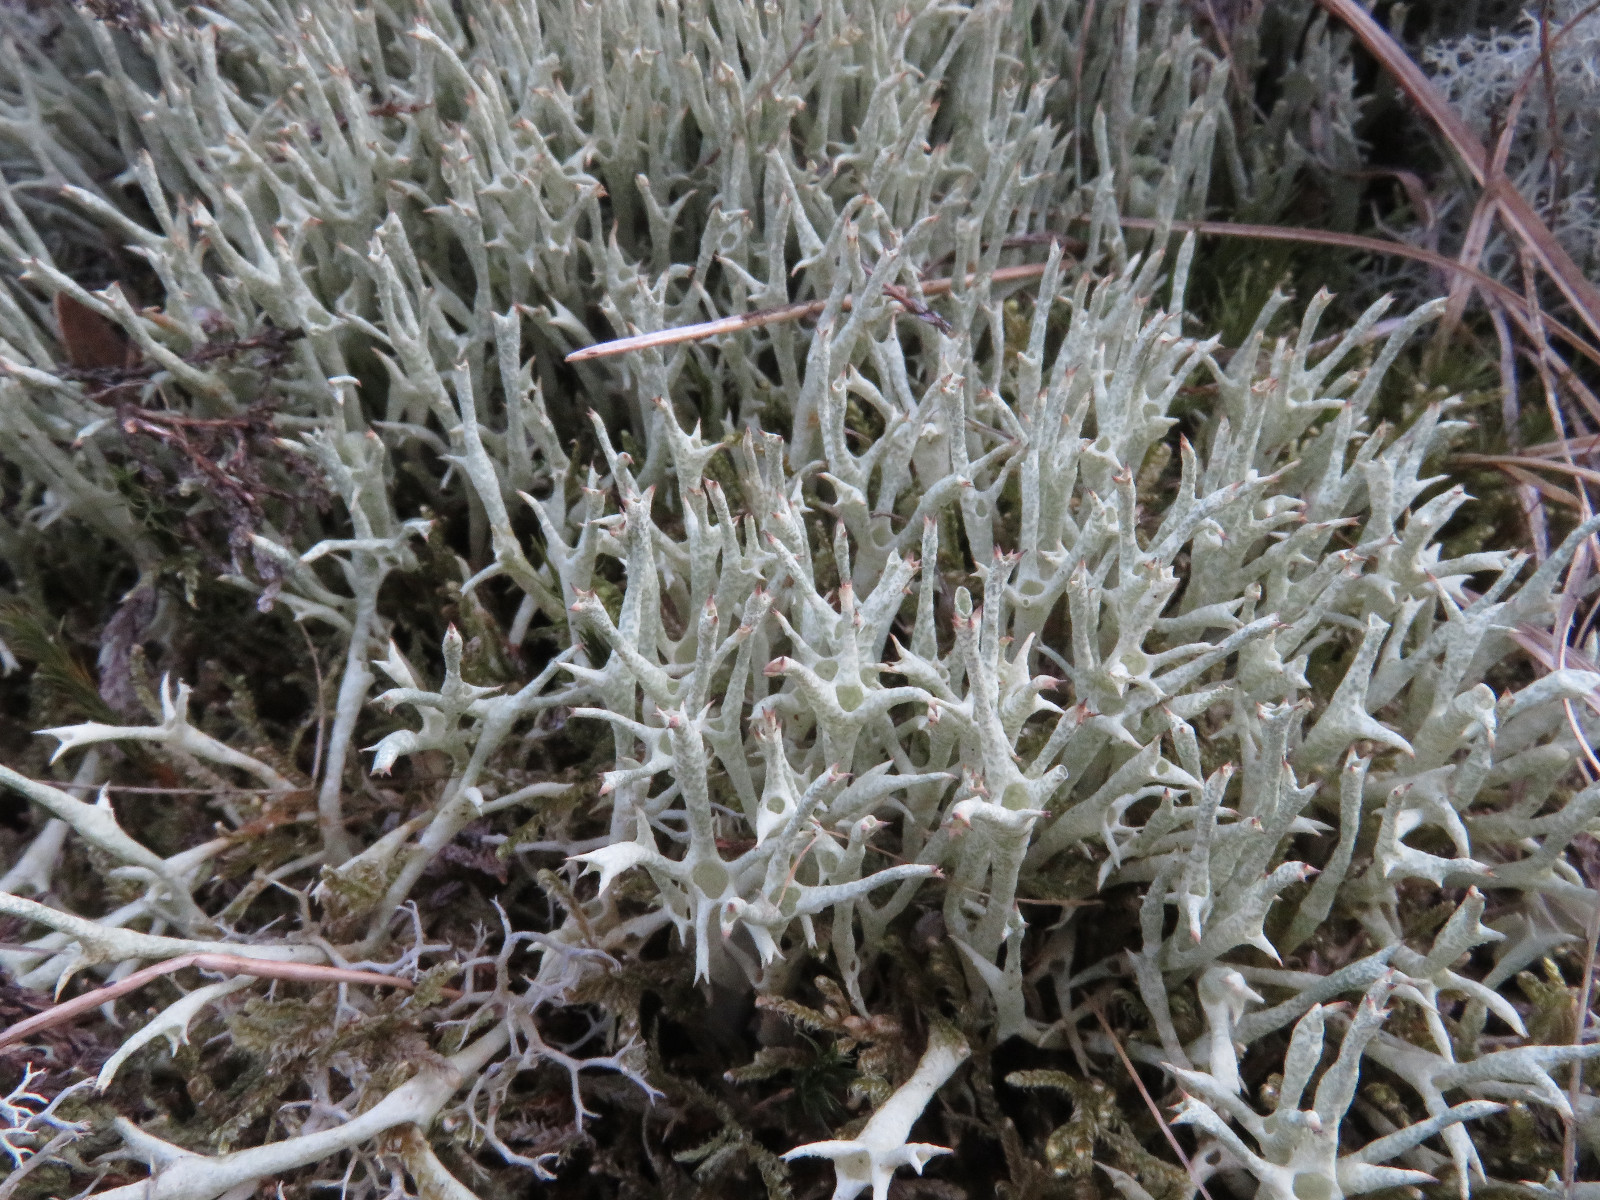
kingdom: Fungi
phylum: Ascomycota
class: Lecanoromycetes
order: Lecanorales
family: Cladoniaceae
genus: Cladonia
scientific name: Cladonia uncialis
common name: pigget bægerlav
